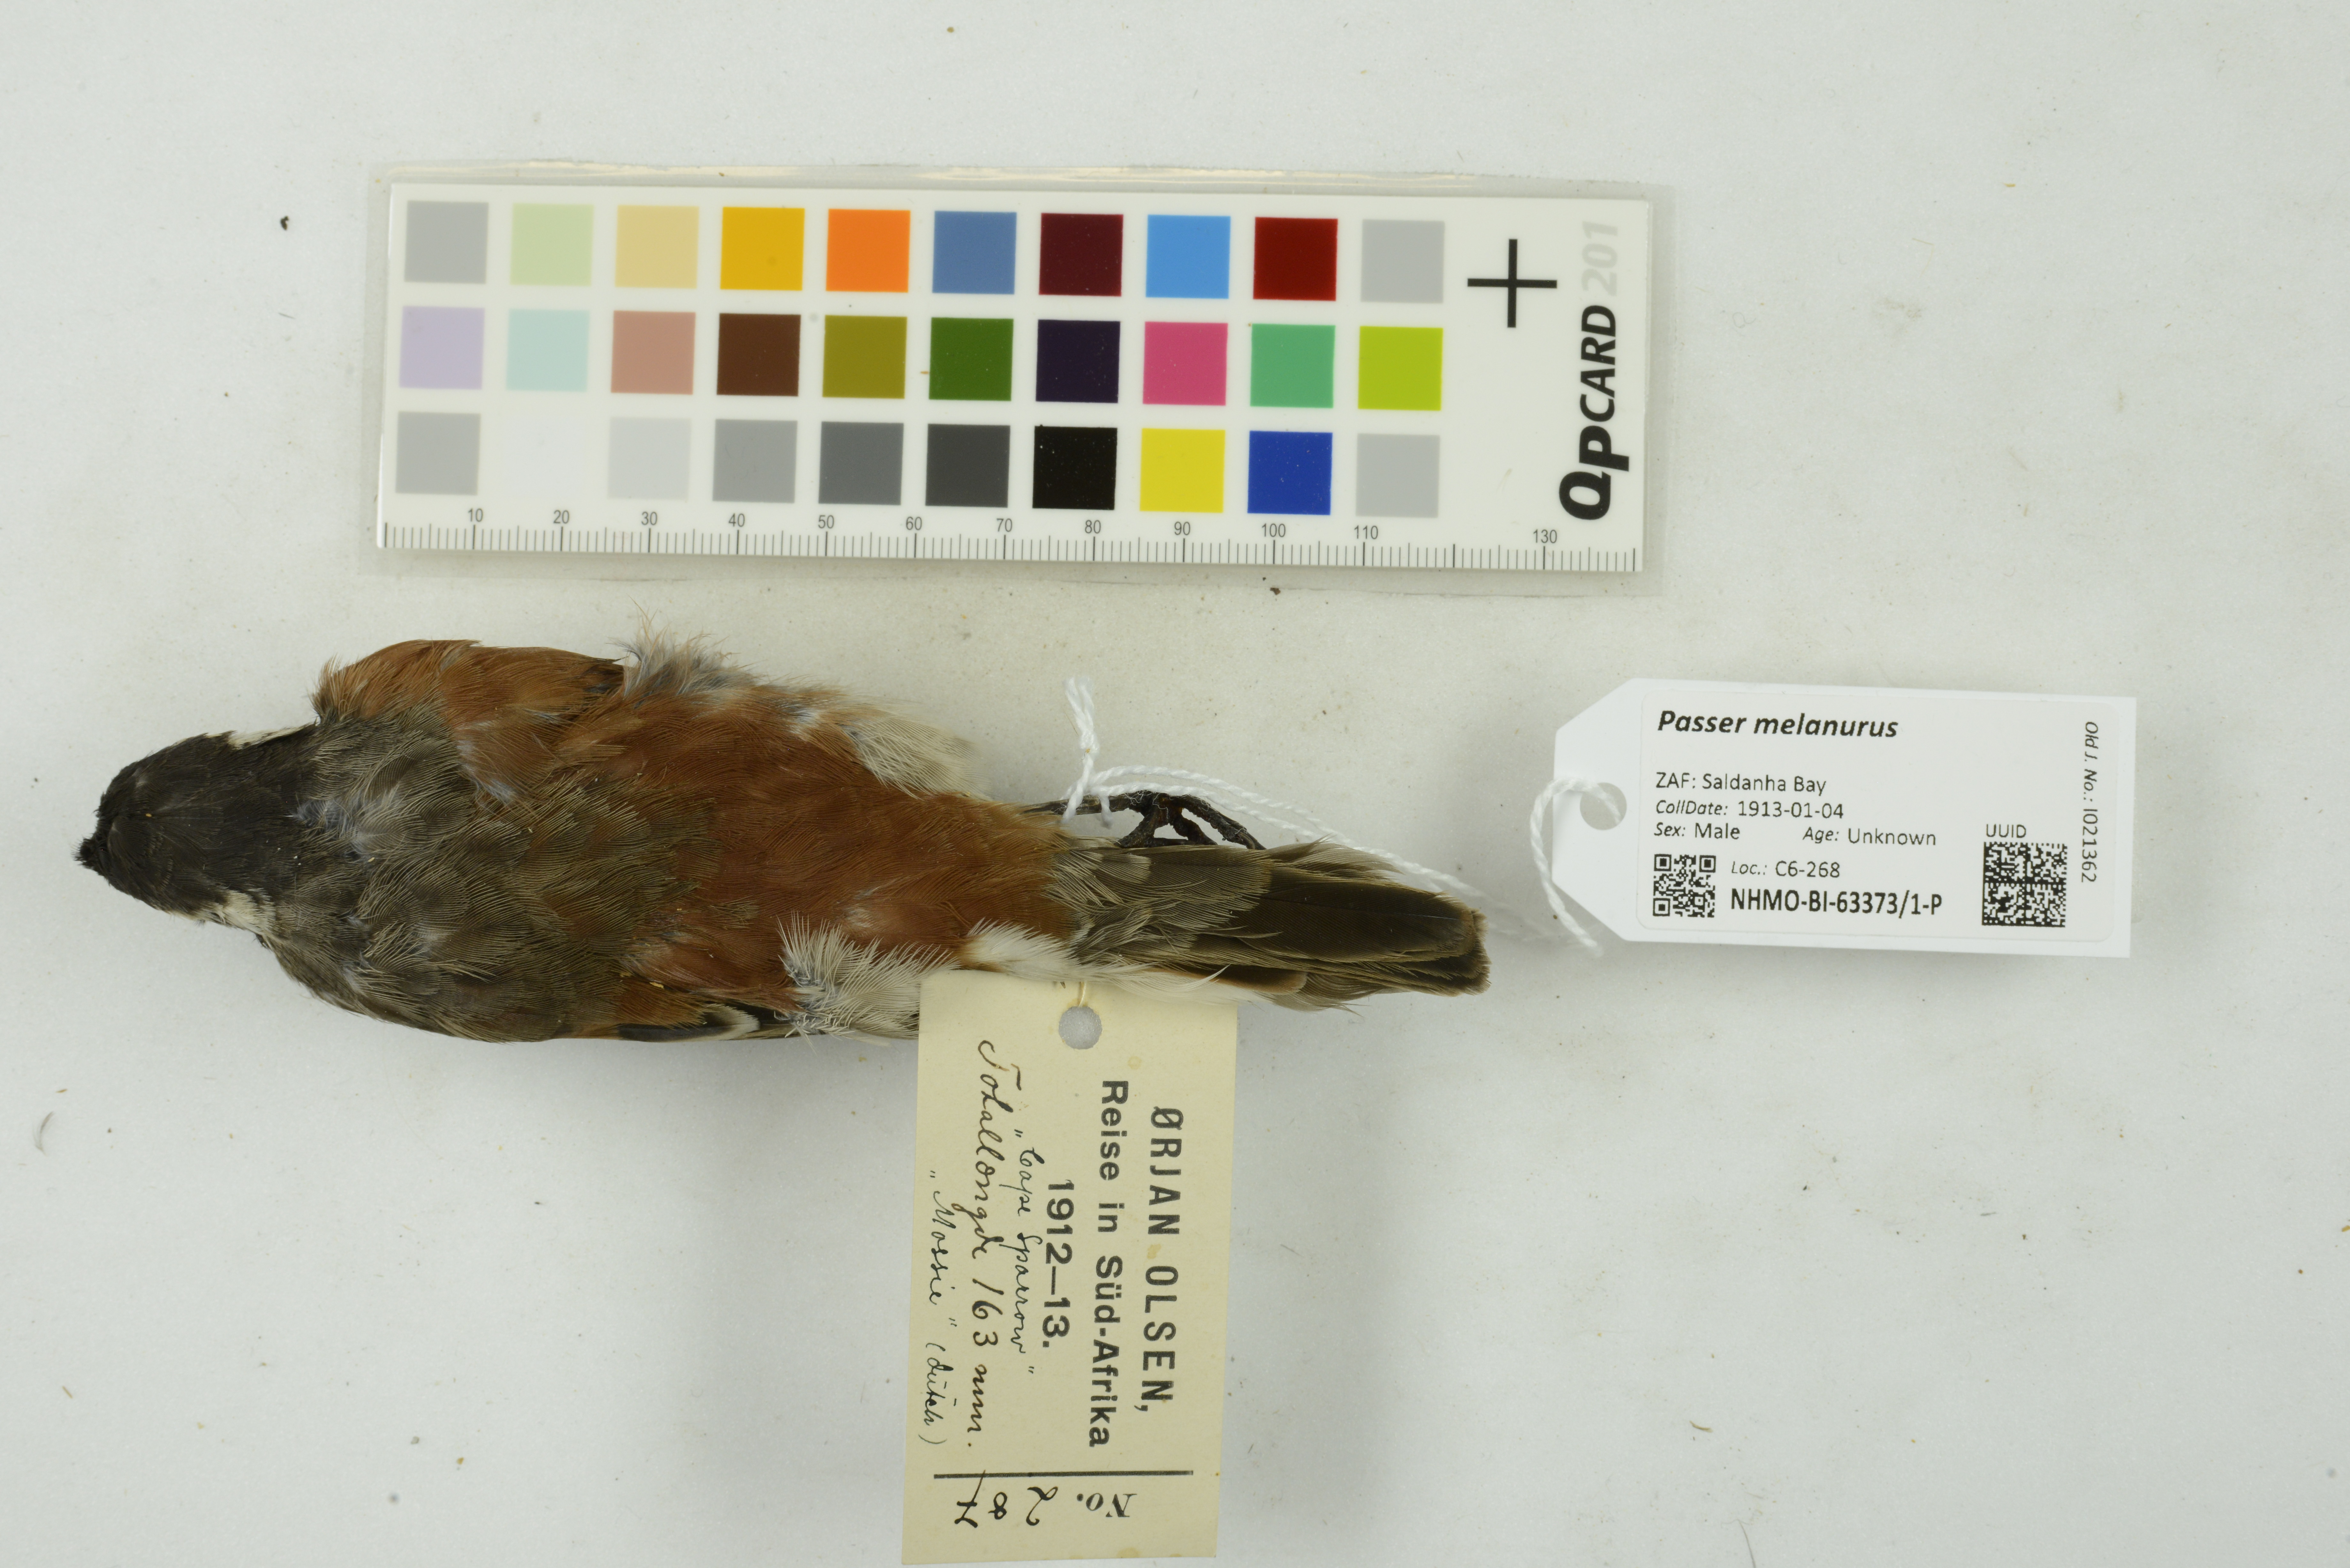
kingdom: Animalia
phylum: Chordata
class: Aves
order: Passeriformes
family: Passeridae
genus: Passer
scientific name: Passer melanurus
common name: Cape sparrow
